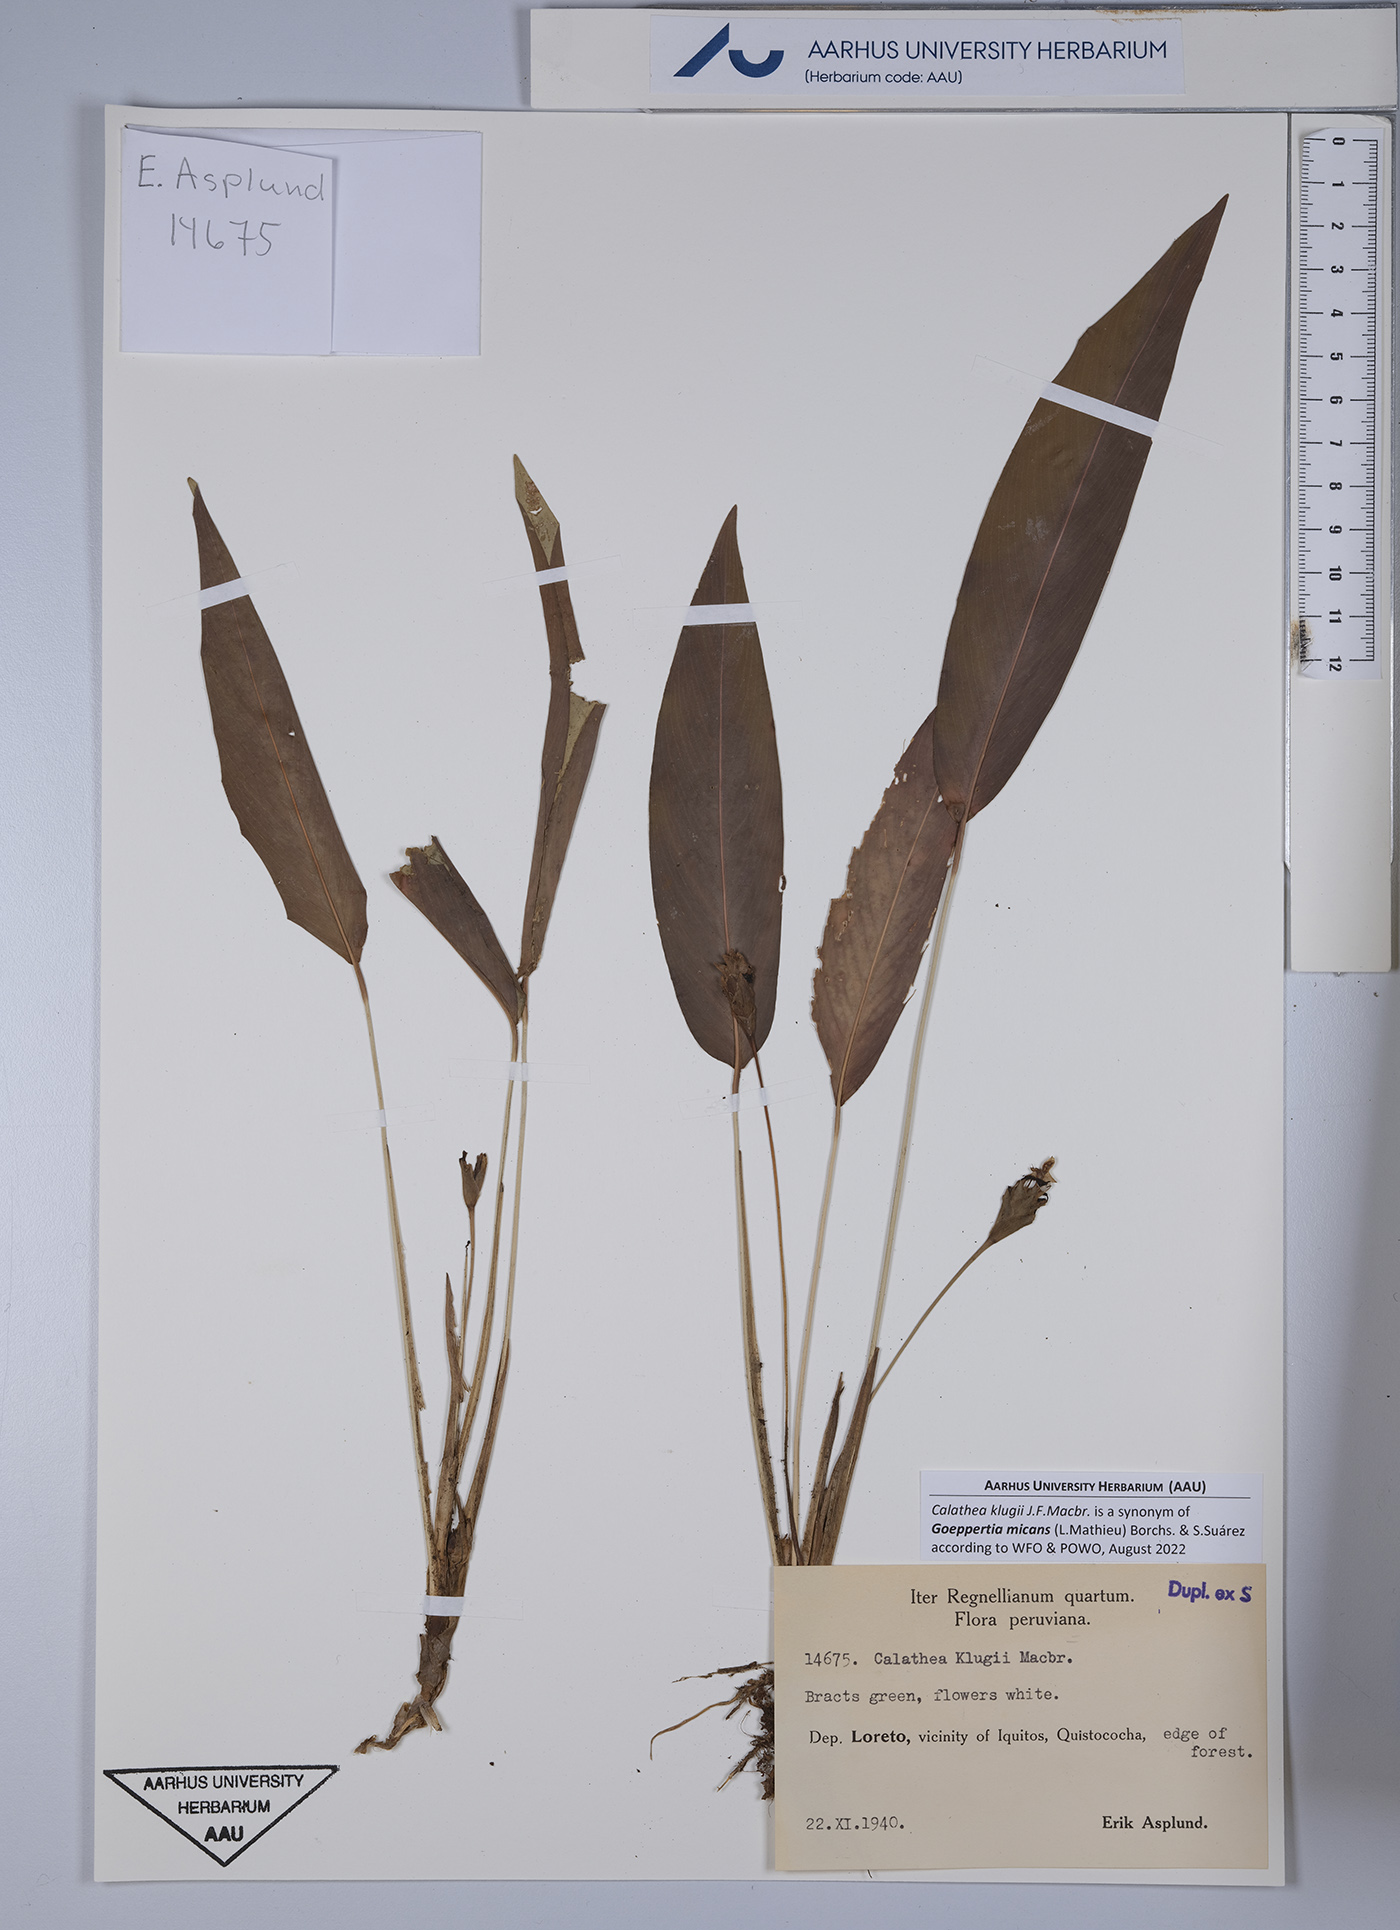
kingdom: Plantae
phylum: Tracheophyta
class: Liliopsida
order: Zingiberales
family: Marantaceae
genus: Goeppertia
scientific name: Goeppertia micans
